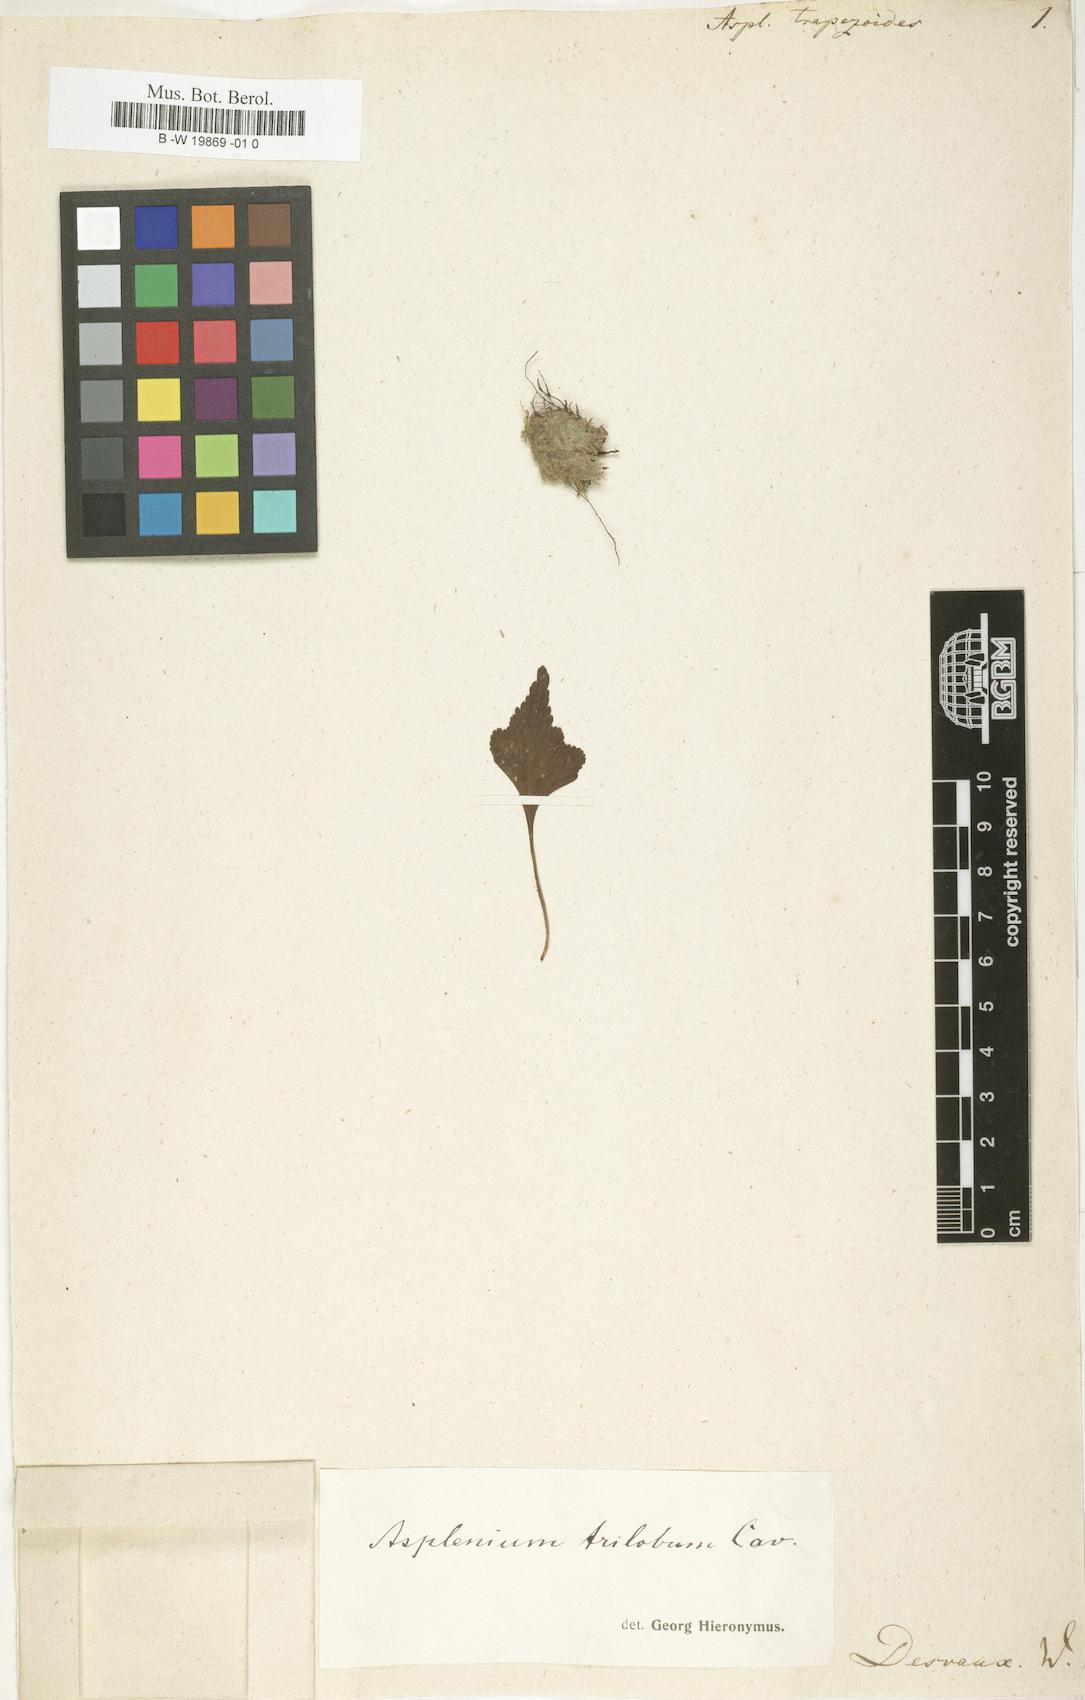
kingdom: Plantae
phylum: Tracheophyta
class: Polypodiopsida
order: Polypodiales
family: Aspleniaceae
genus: Asplenium
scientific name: Asplenium trilobum
